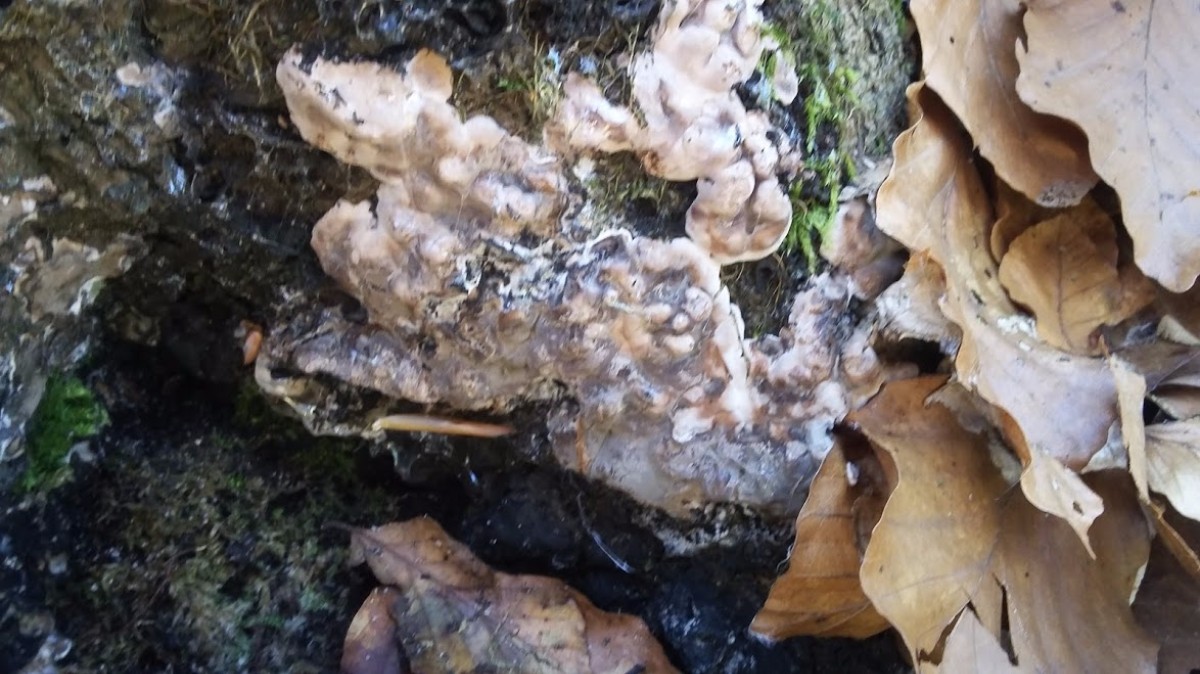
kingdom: Fungi
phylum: Ascomycota
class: Sordariomycetes
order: Xylariales
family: Xylariaceae
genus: Kretzschmaria
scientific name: Kretzschmaria deusta
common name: stor kulsvamp
